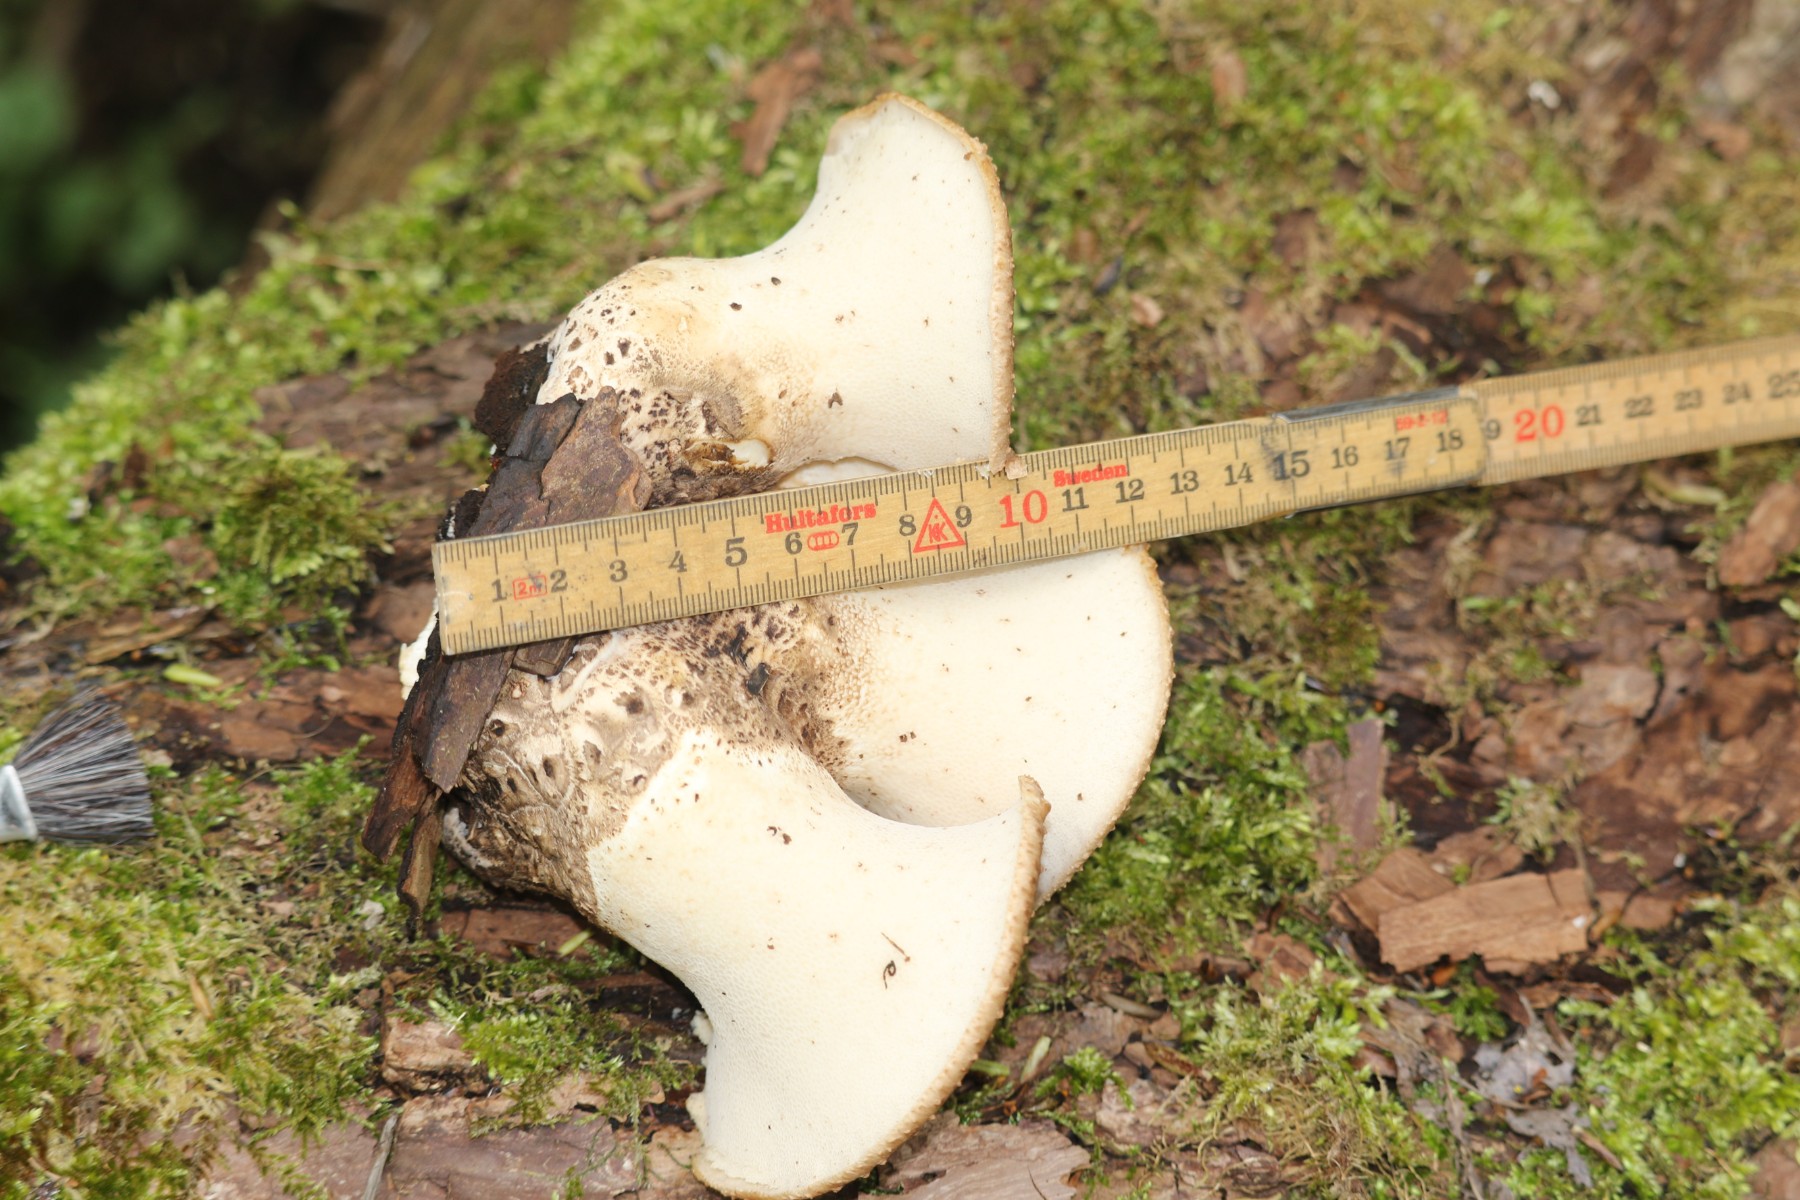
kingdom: Fungi
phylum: Basidiomycota
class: Agaricomycetes
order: Polyporales
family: Polyporaceae
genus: Cerioporus
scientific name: Cerioporus squamosus
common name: skællet stilkporesvamp
